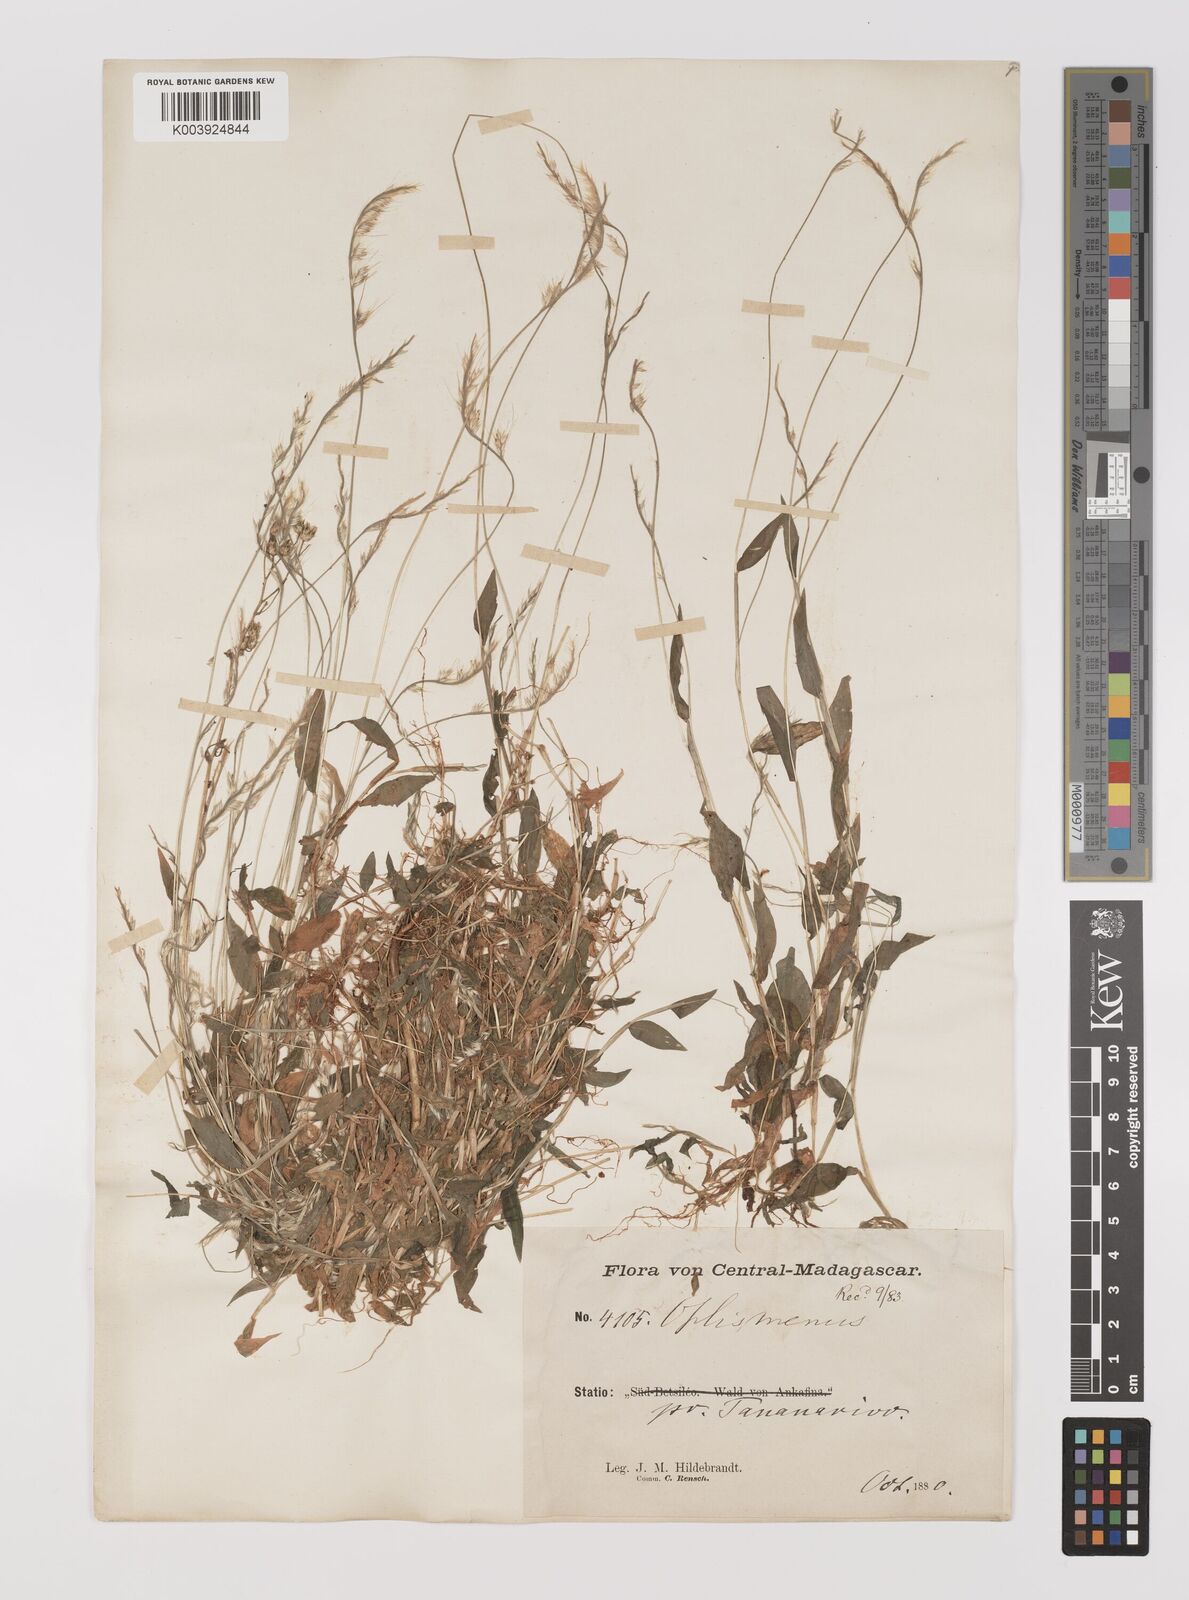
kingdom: Plantae
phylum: Tracheophyta
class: Liliopsida
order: Poales
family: Poaceae
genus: Oplismenus
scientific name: Oplismenus burmanni
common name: Burmann's basketgrass
